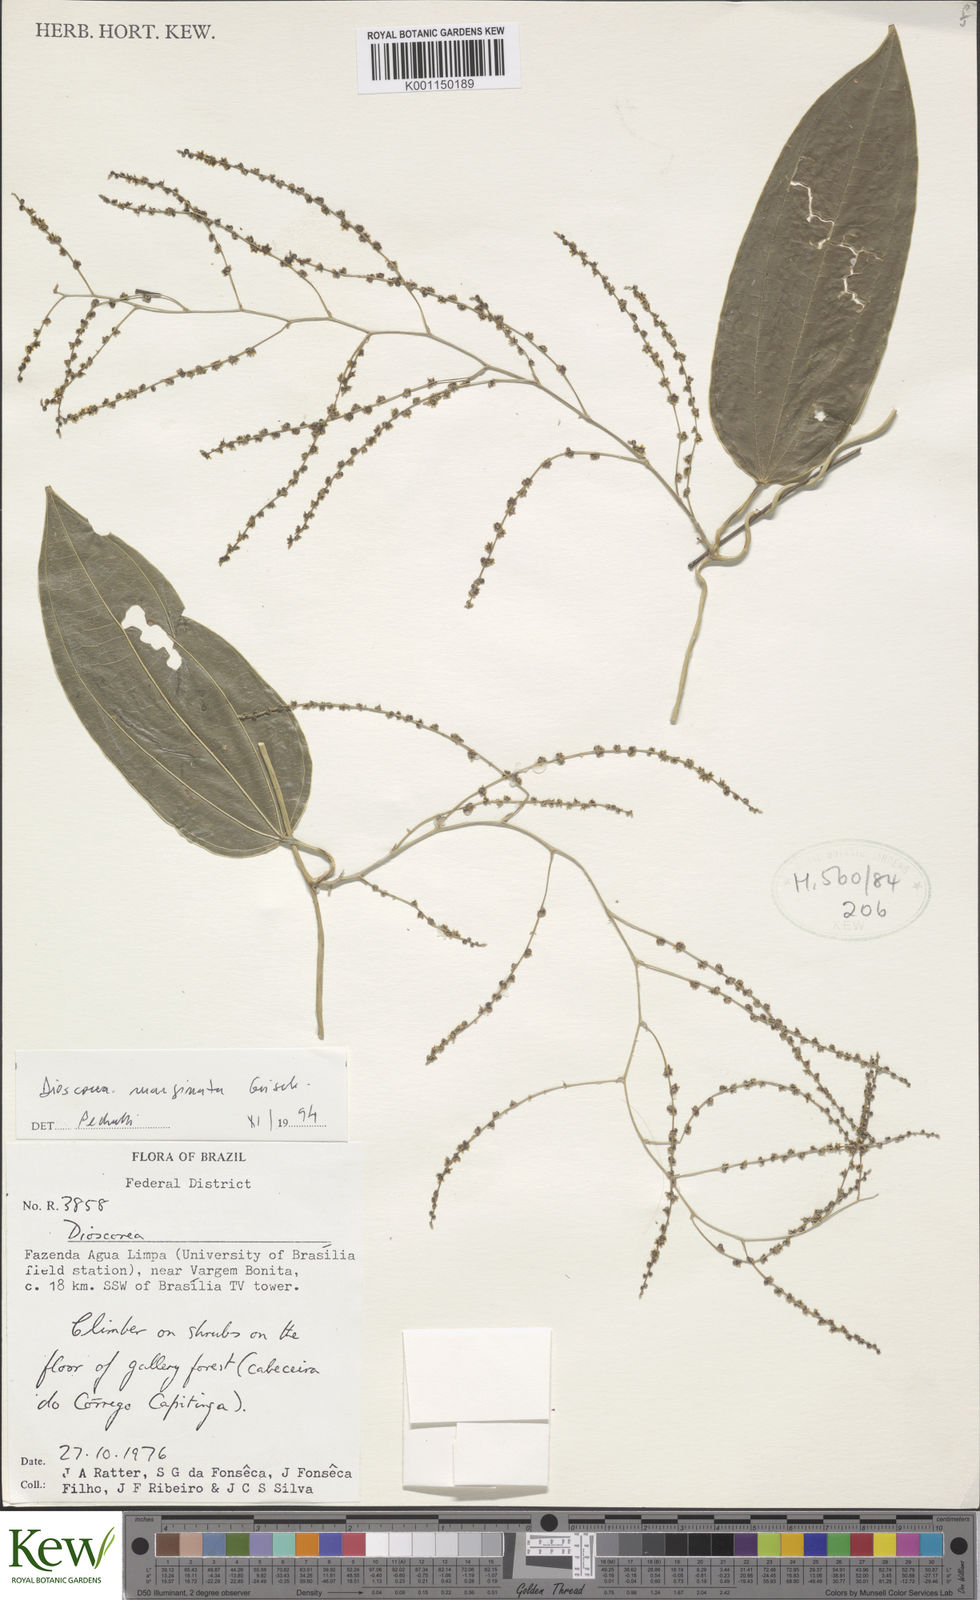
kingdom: Plantae
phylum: Tracheophyta
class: Liliopsida
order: Dioscoreales
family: Dioscoreaceae
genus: Dioscorea
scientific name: Dioscorea
